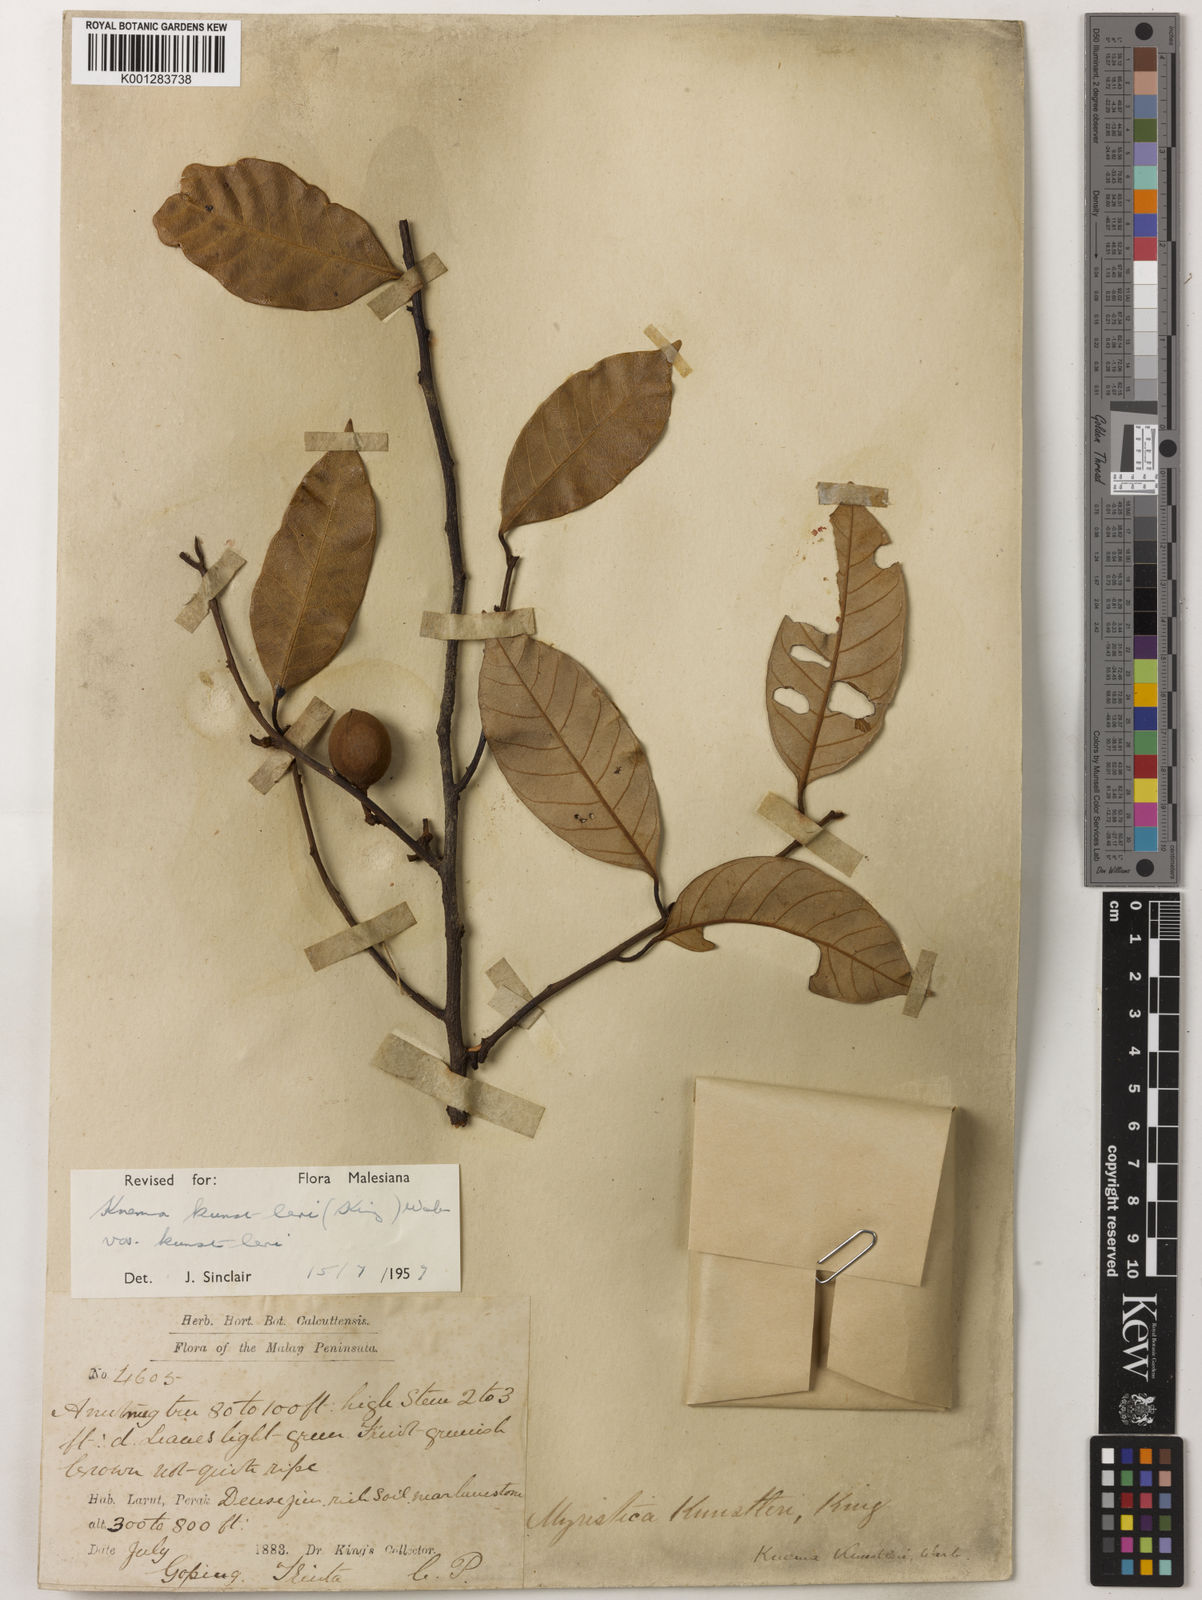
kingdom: Plantae
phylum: Tracheophyta
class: Magnoliopsida
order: Magnoliales
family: Myristicaceae
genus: Knema
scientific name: Knema kunstleri
